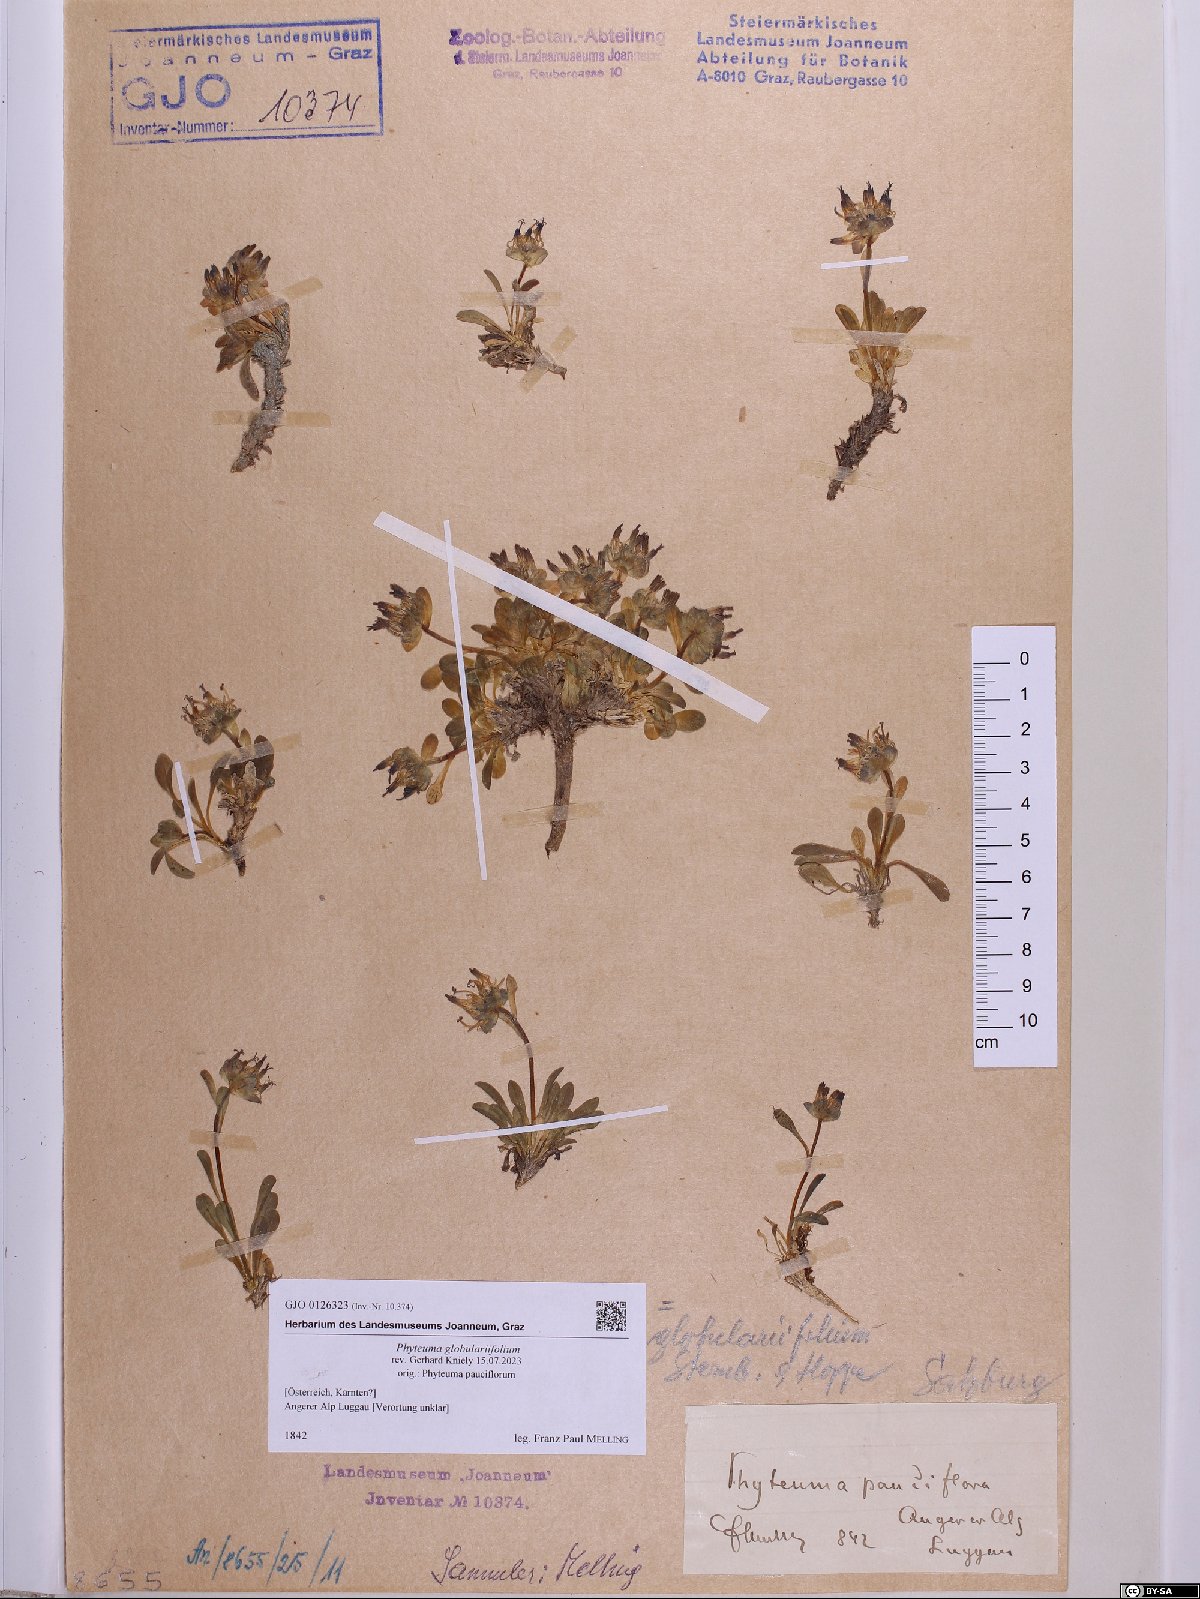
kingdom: Plantae
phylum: Tracheophyta
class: Magnoliopsida
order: Asterales
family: Campanulaceae
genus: Phyteuma
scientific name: Phyteuma globulariifolium
